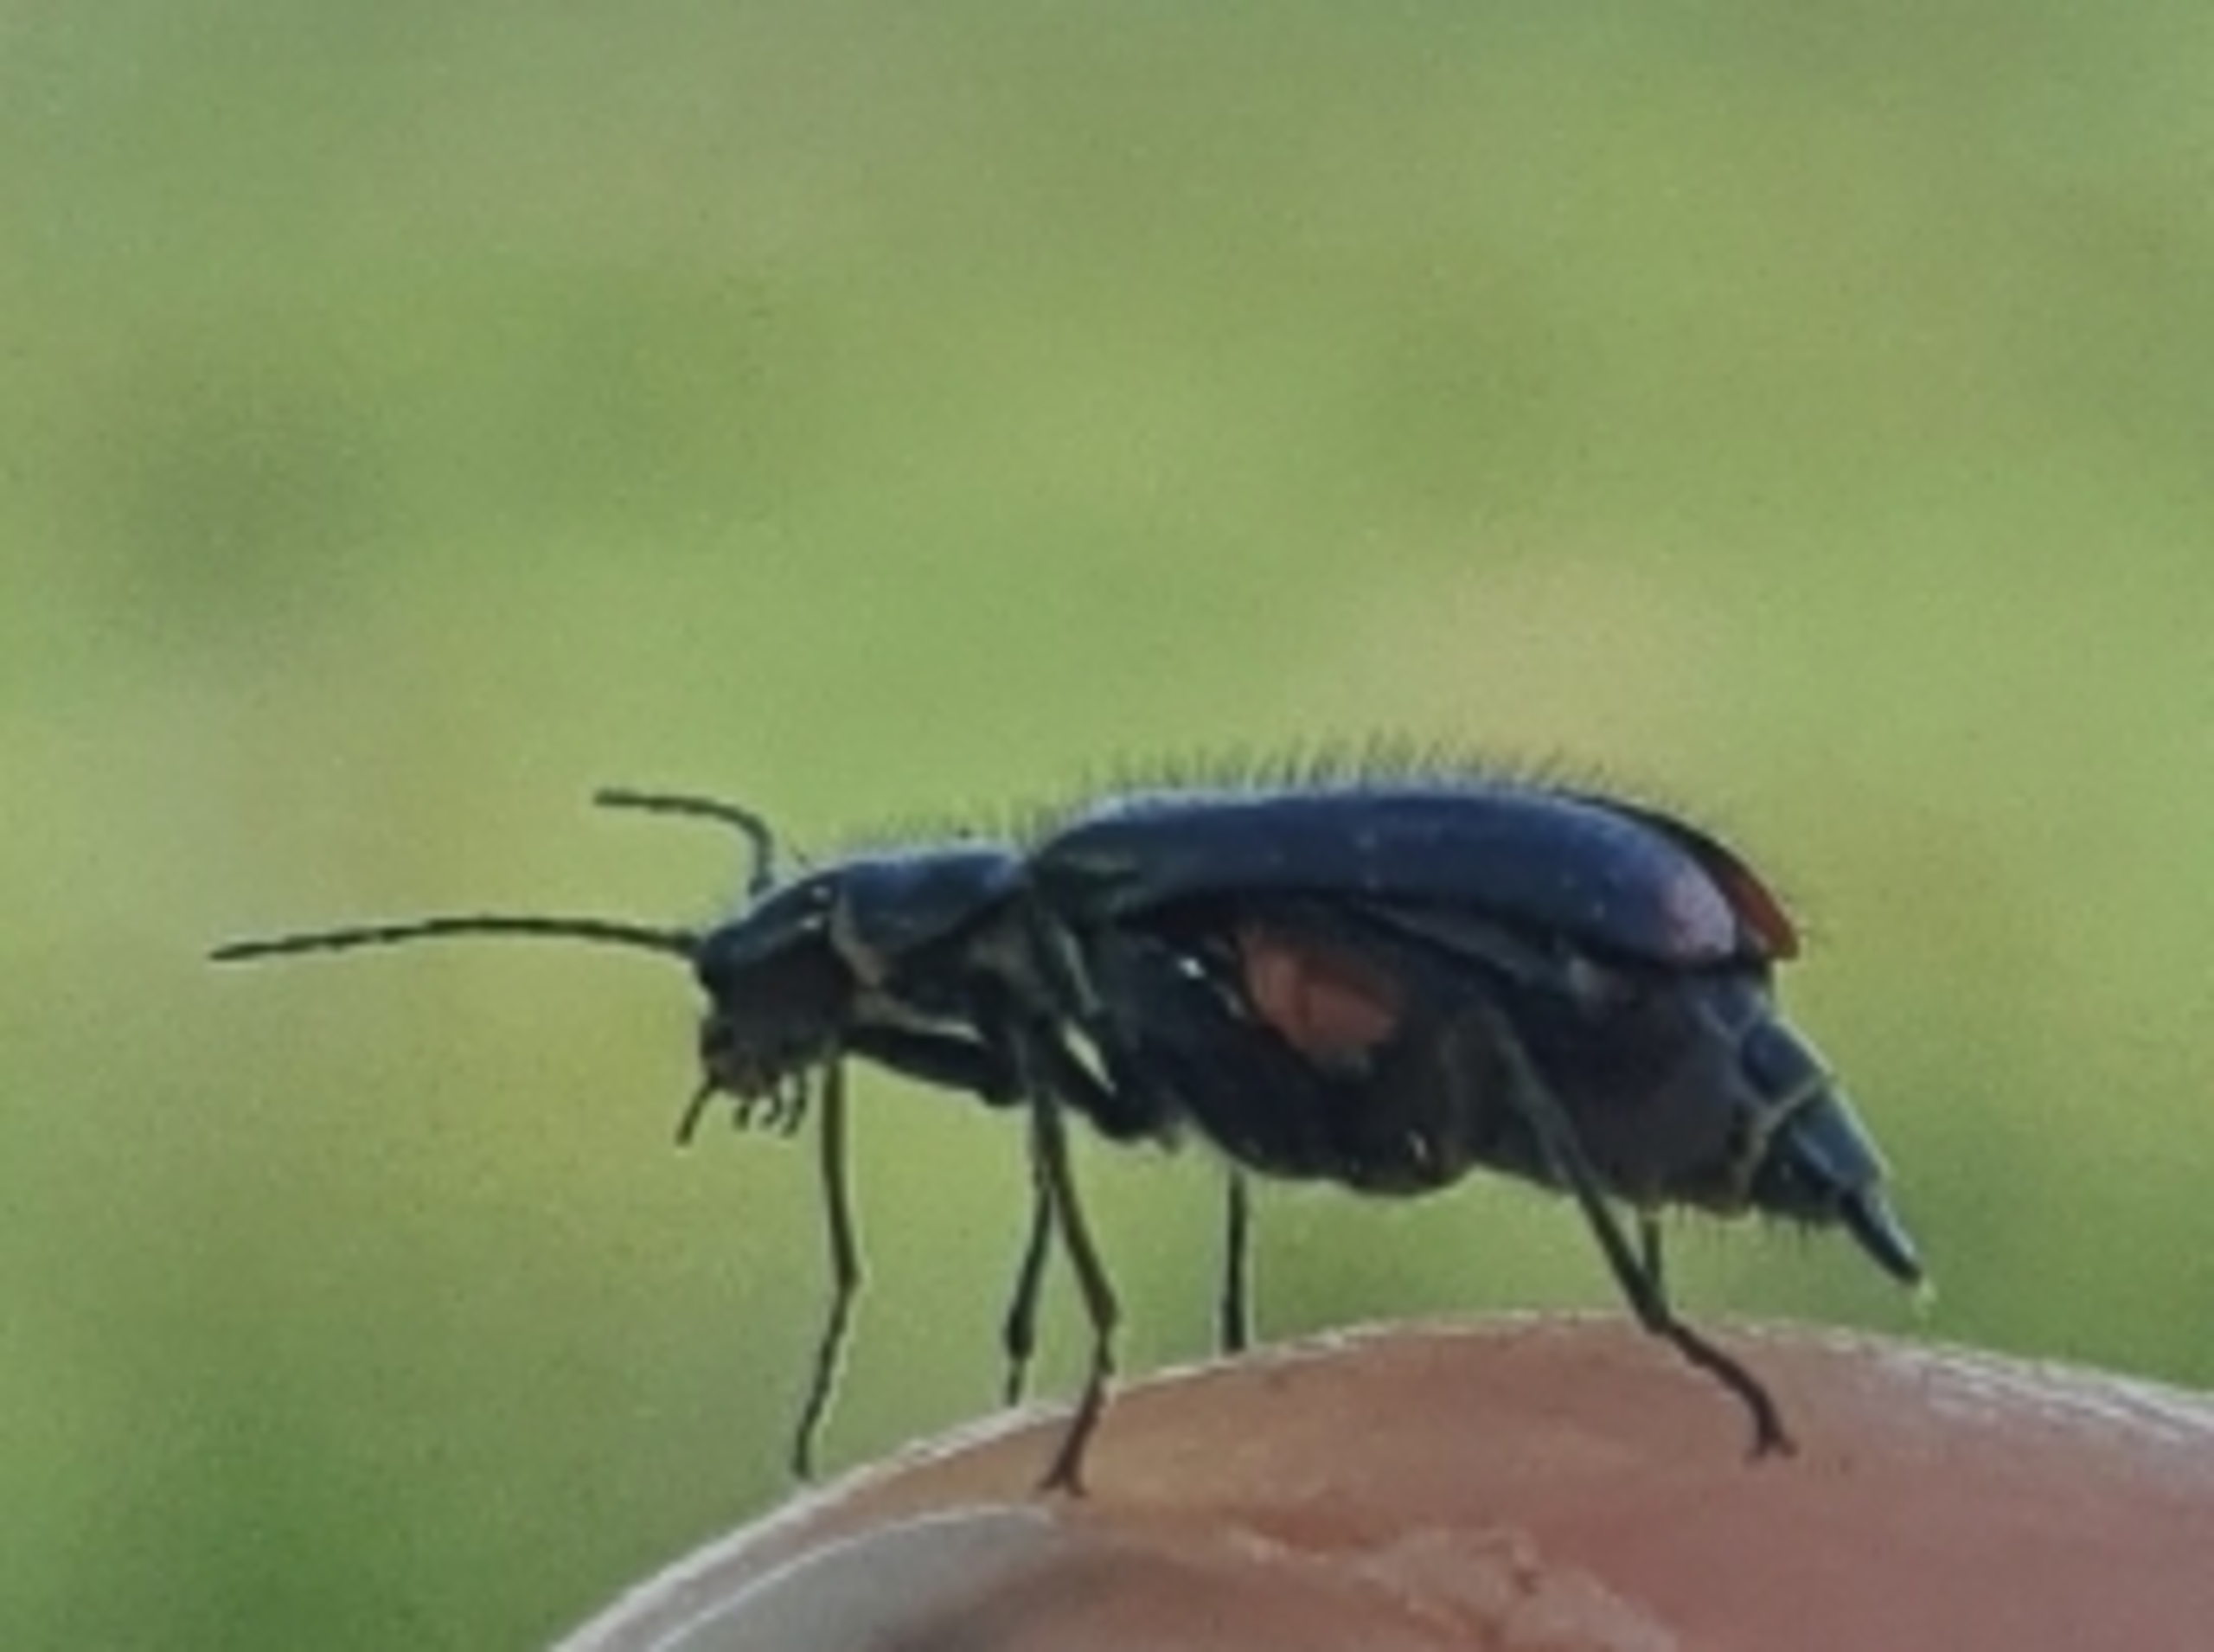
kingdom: Animalia
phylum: Arthropoda
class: Insecta
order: Coleoptera
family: Melyridae
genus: Malachius
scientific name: Malachius bipustulatus
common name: Skovmalakitbille
